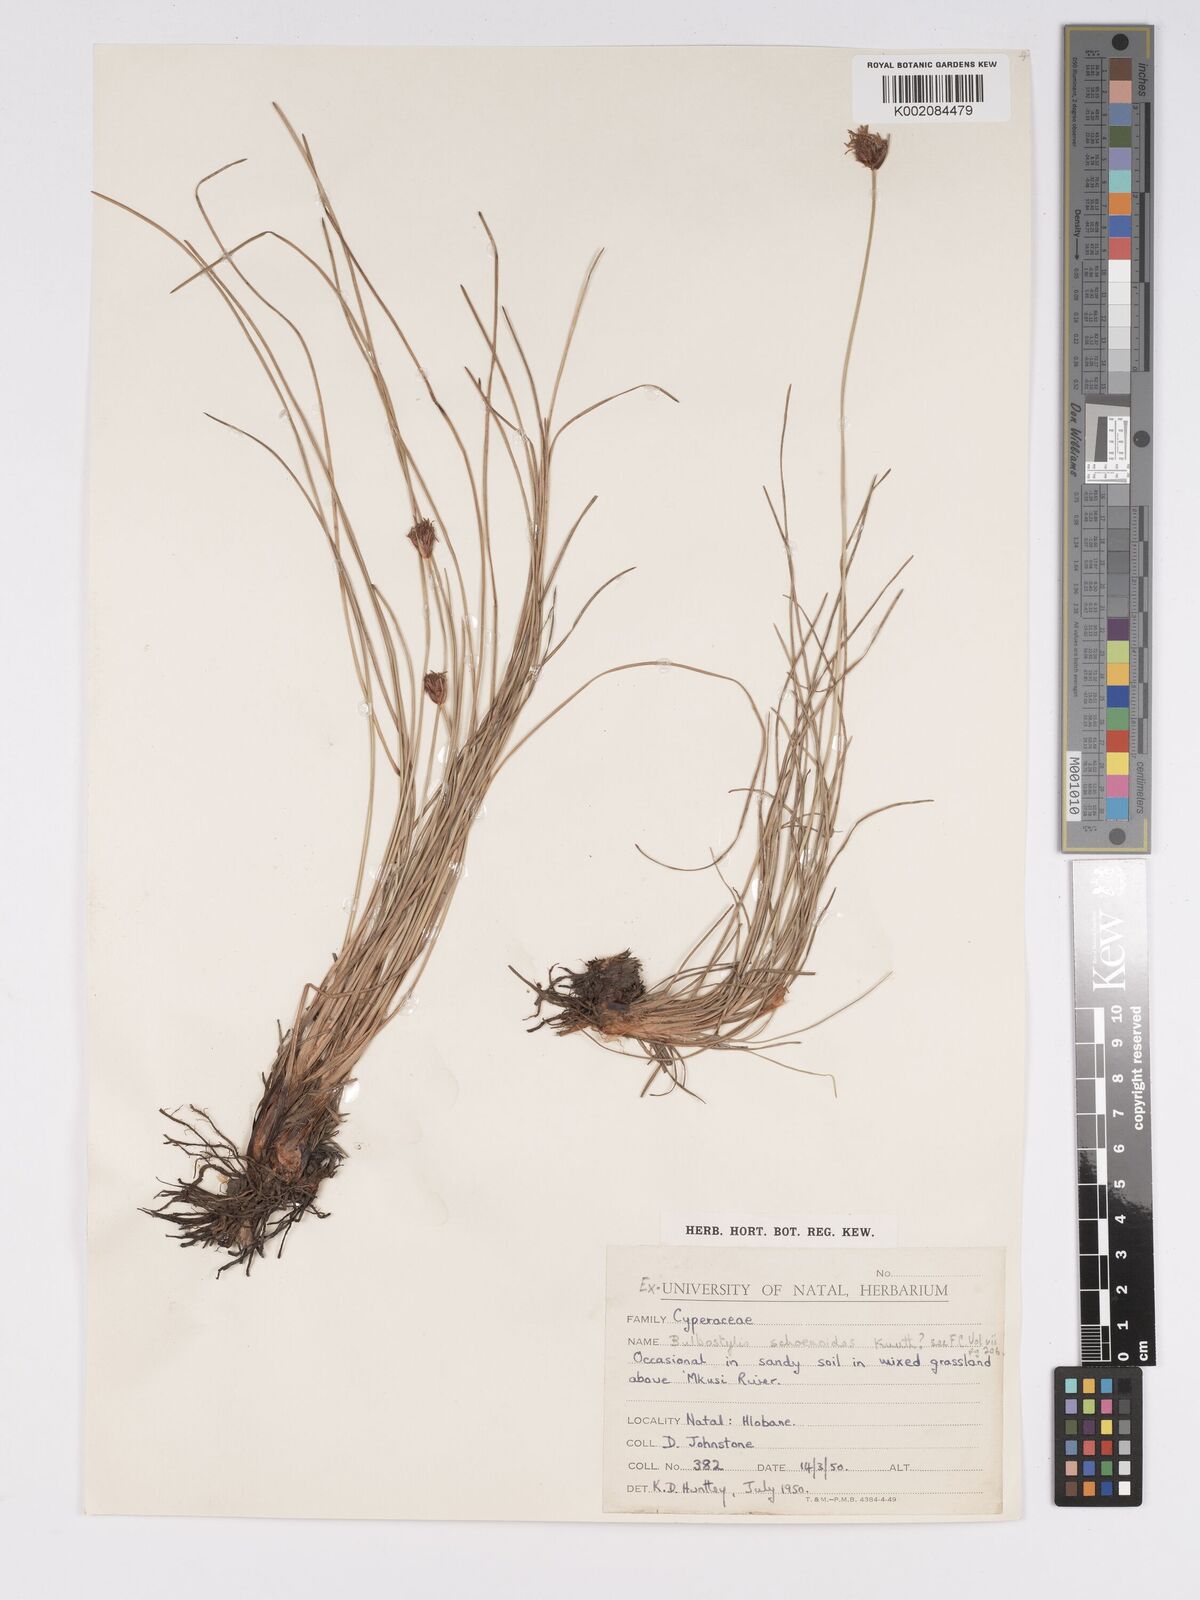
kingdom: Plantae
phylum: Tracheophyta
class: Liliopsida
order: Poales
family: Cyperaceae
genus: Bulbostylis
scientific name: Bulbostylis schoenoides
